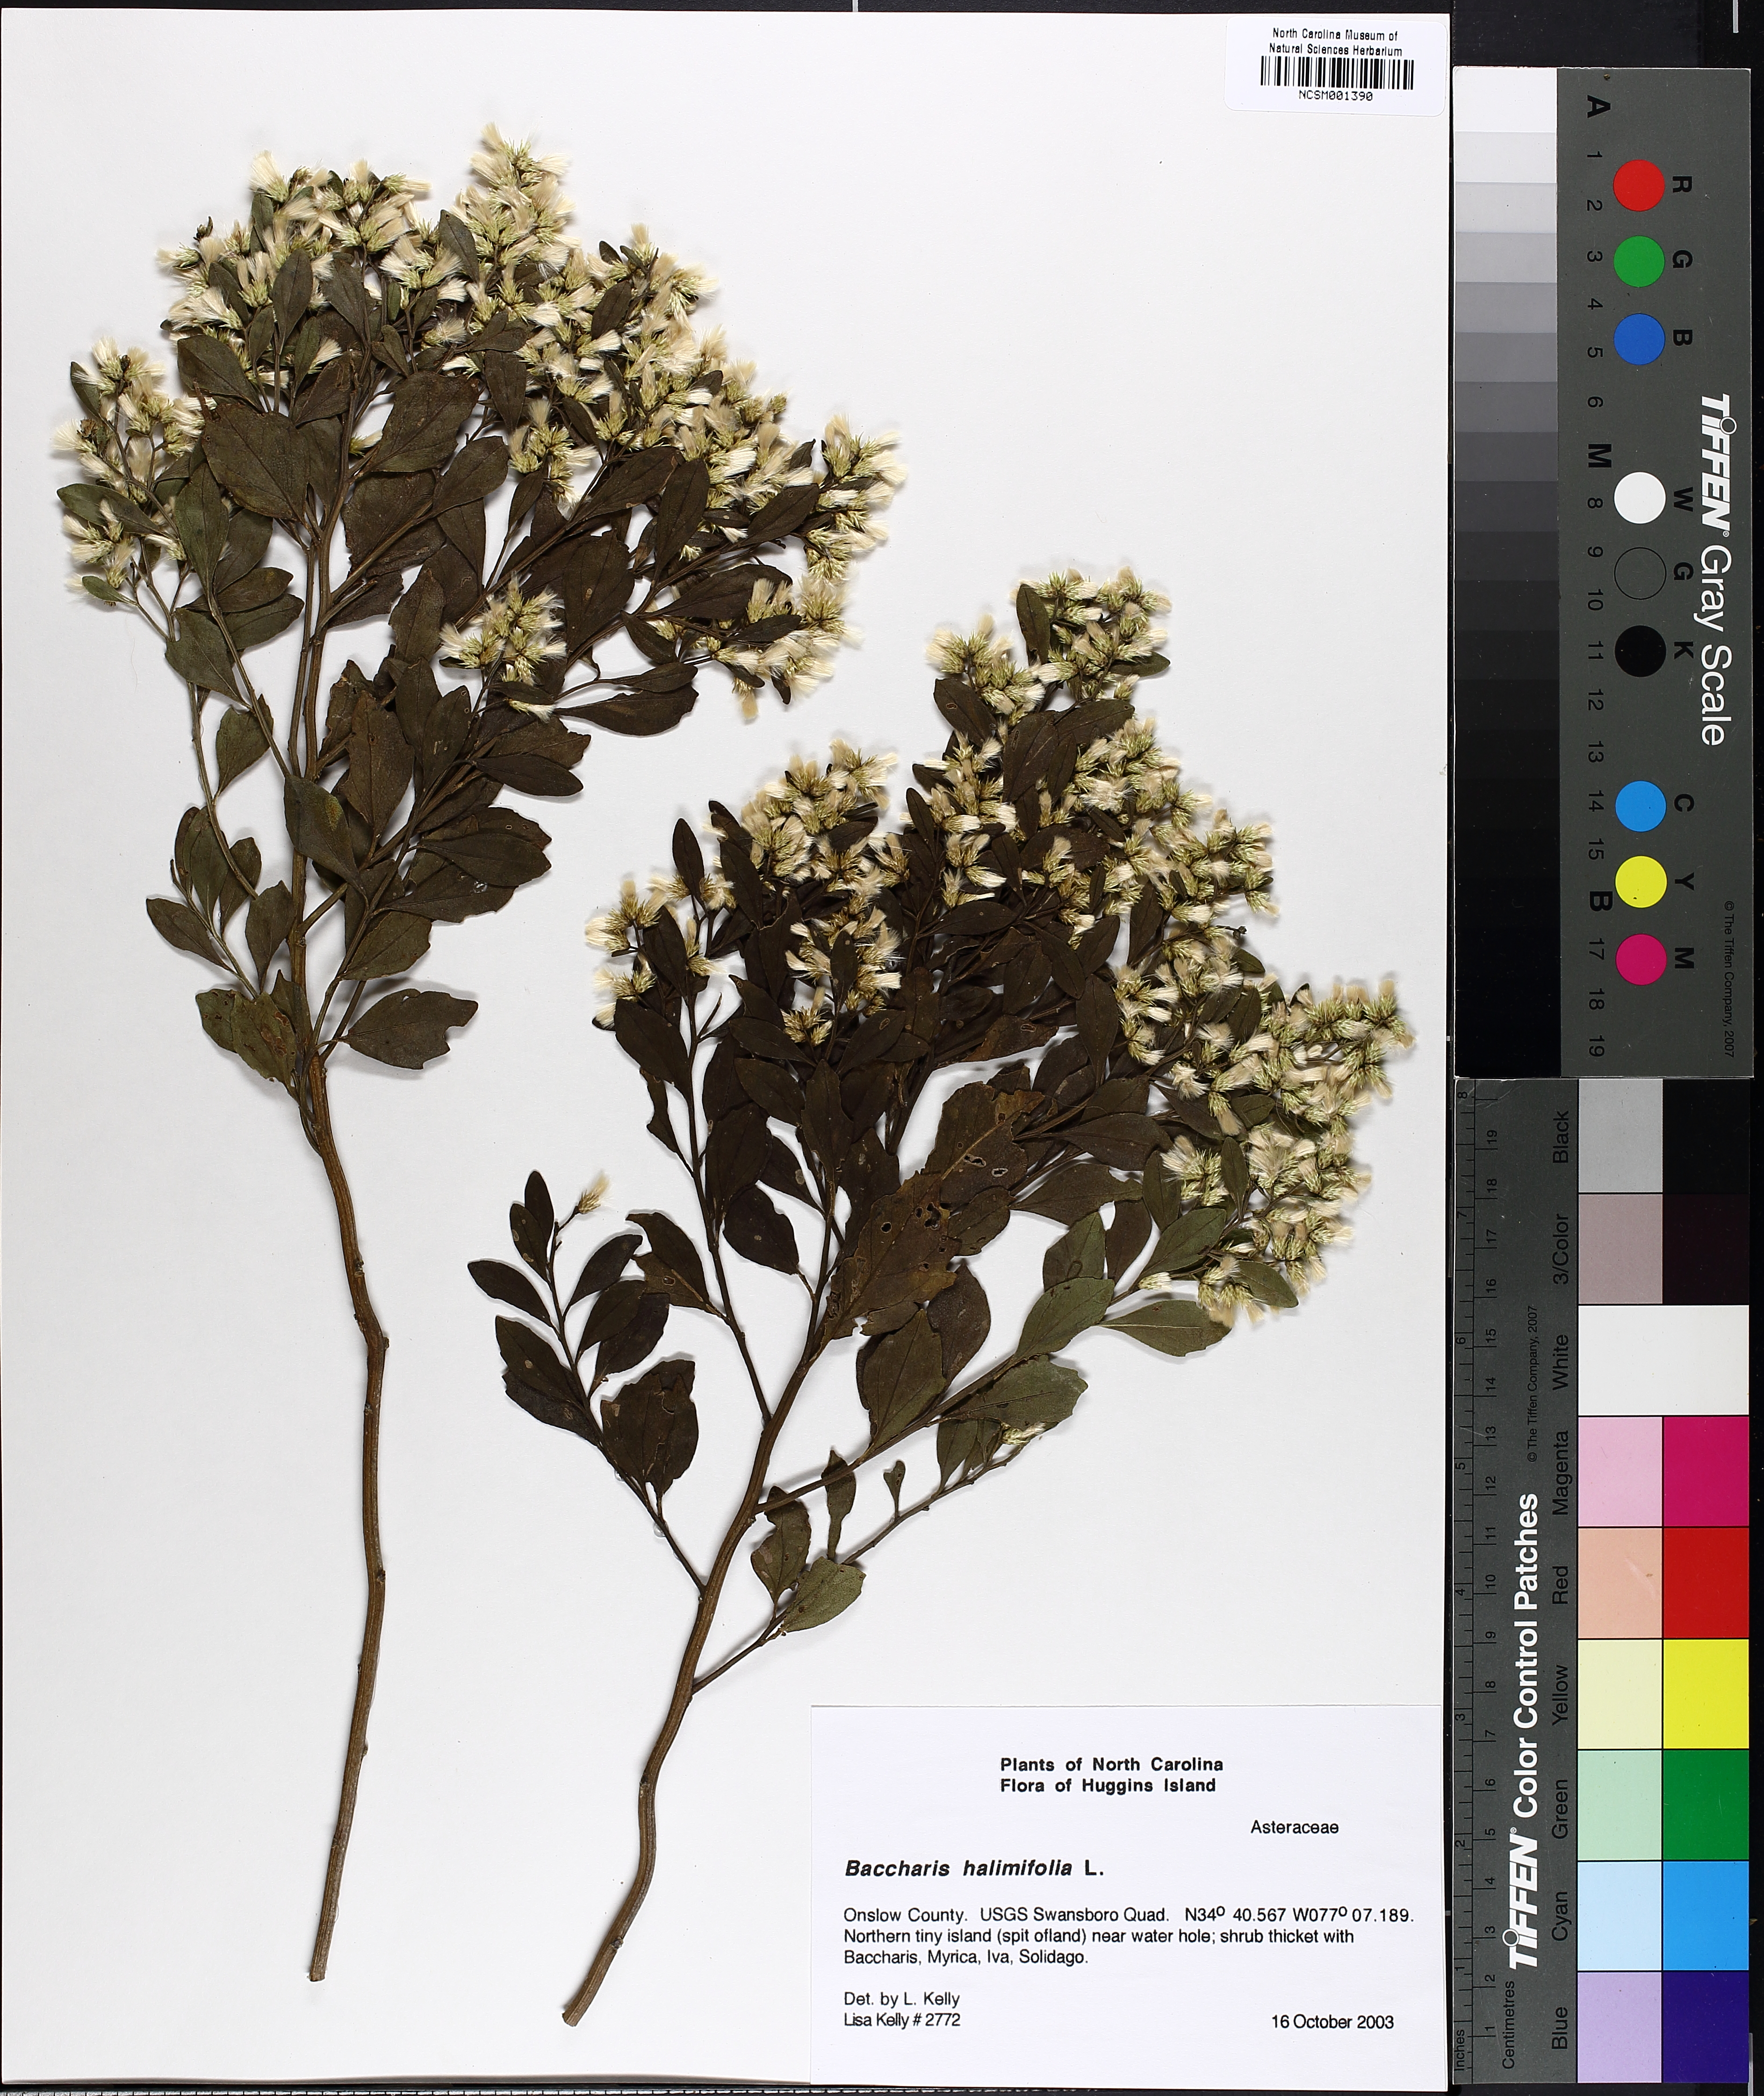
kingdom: Plantae
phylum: Tracheophyta
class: Magnoliopsida
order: Asterales
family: Asteraceae
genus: Nidorella
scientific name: Nidorella ivifolia
